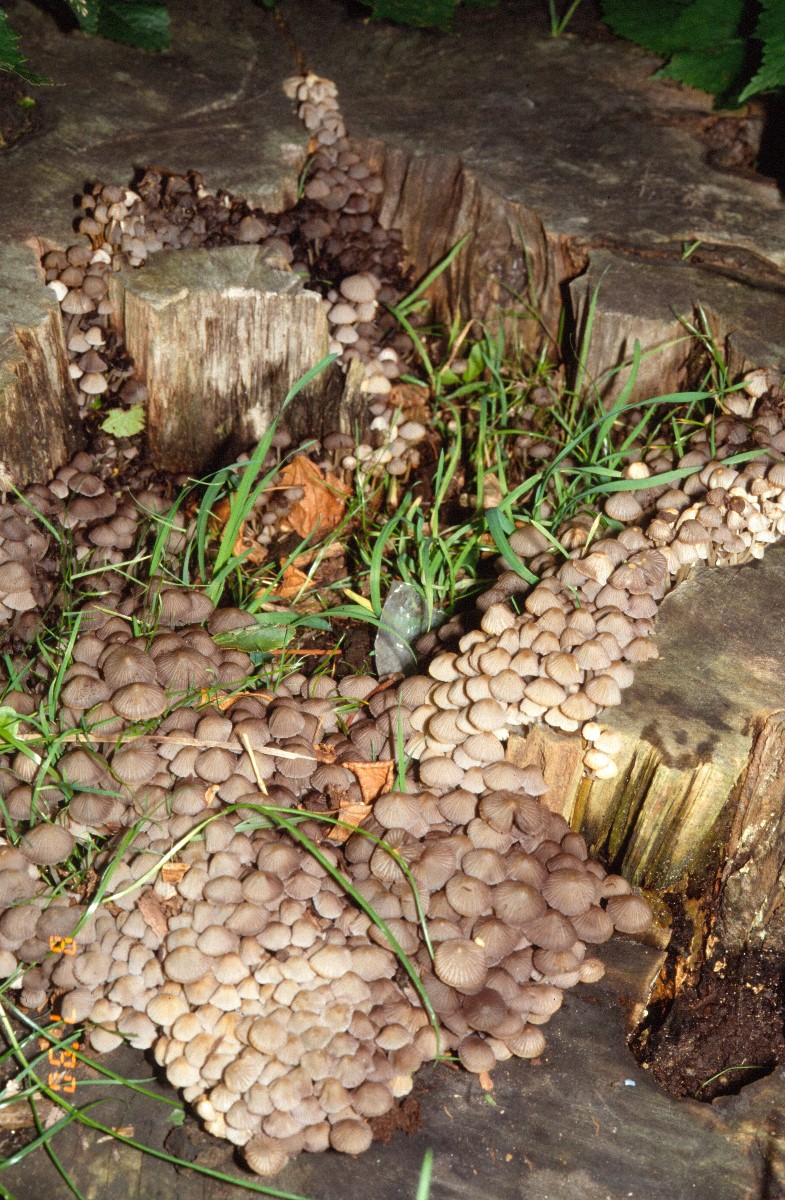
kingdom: Fungi
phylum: Basidiomycota
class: Agaricomycetes
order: Agaricales
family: Psathyrellaceae
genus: Coprinellus
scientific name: Coprinellus disseminatus
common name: bredsået blækhat
